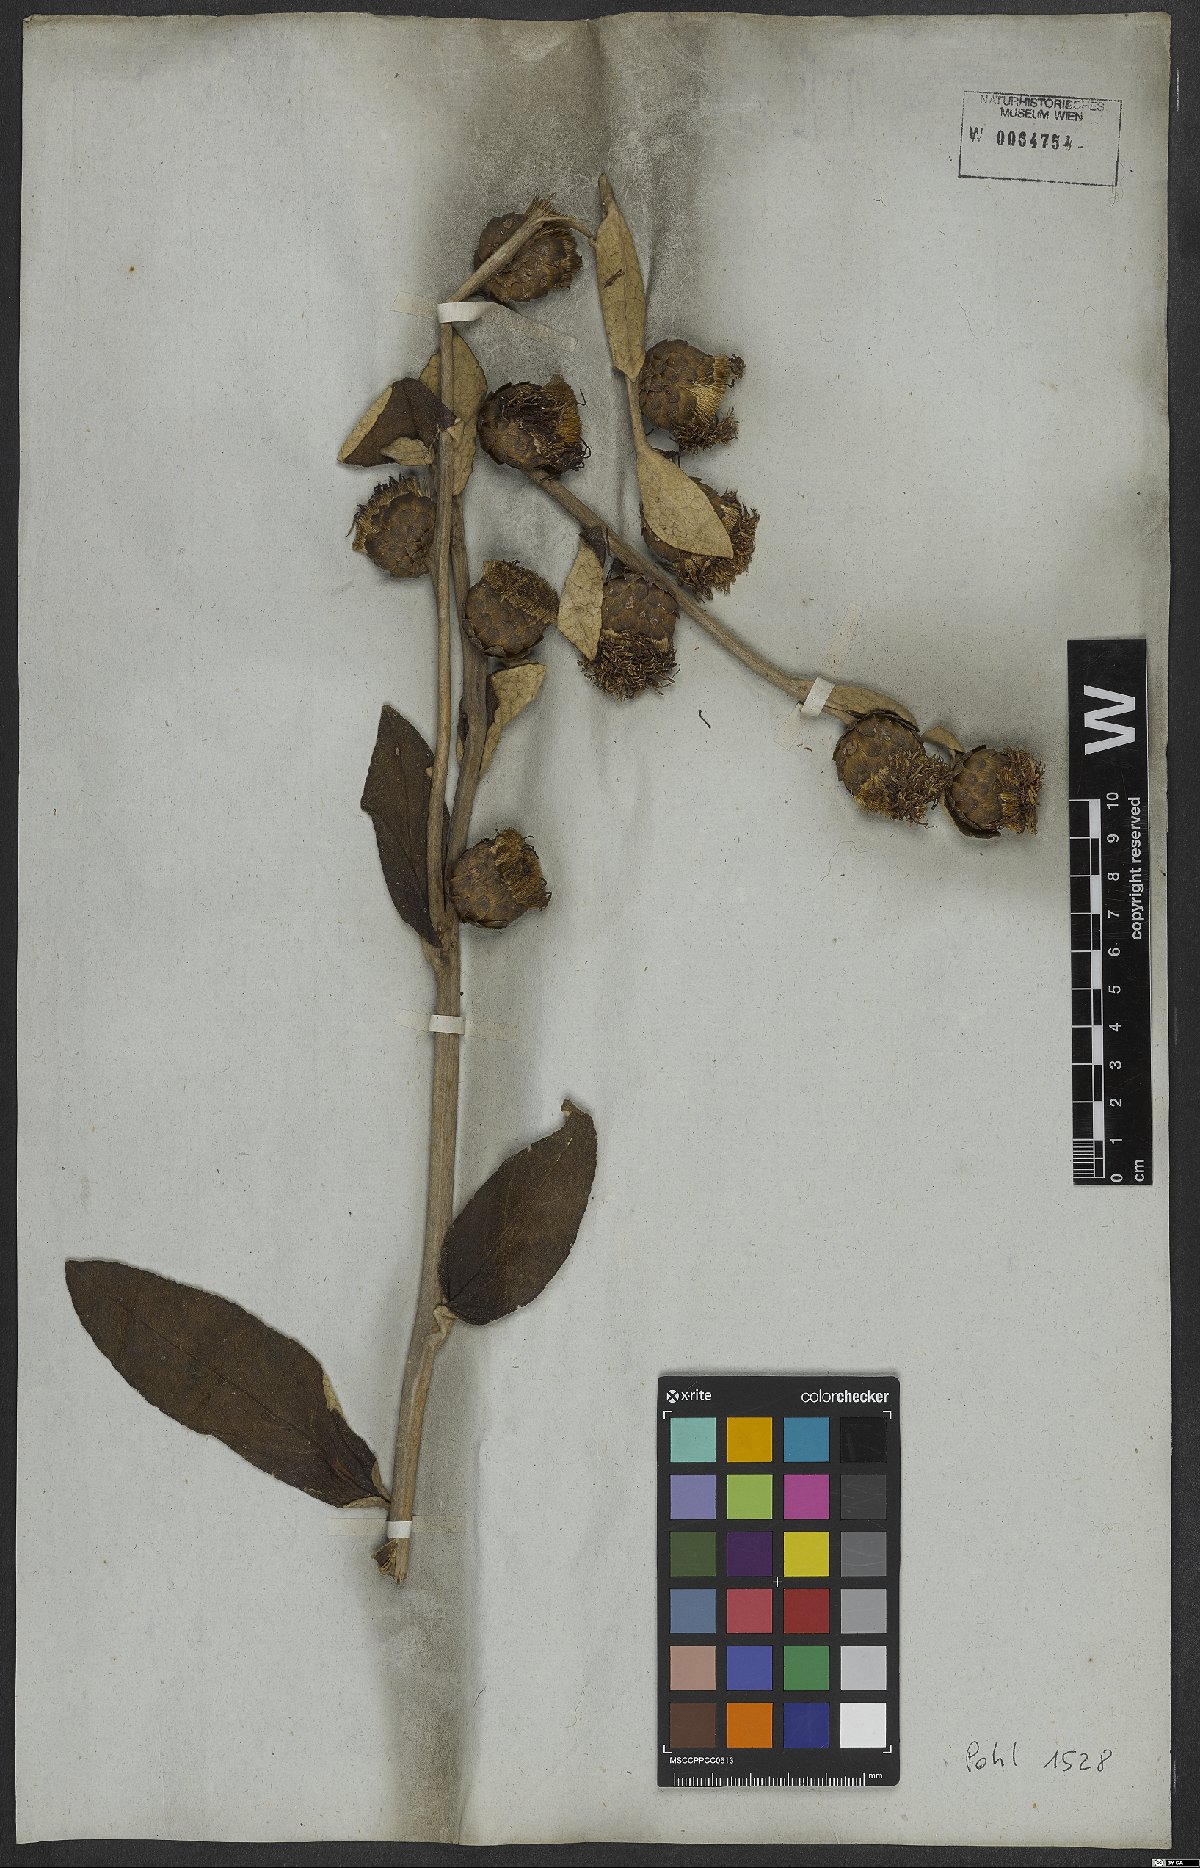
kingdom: Plantae
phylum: Tracheophyta
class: Magnoliopsida
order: Asterales
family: Asteraceae
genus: Vernonia
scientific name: Vernonia
